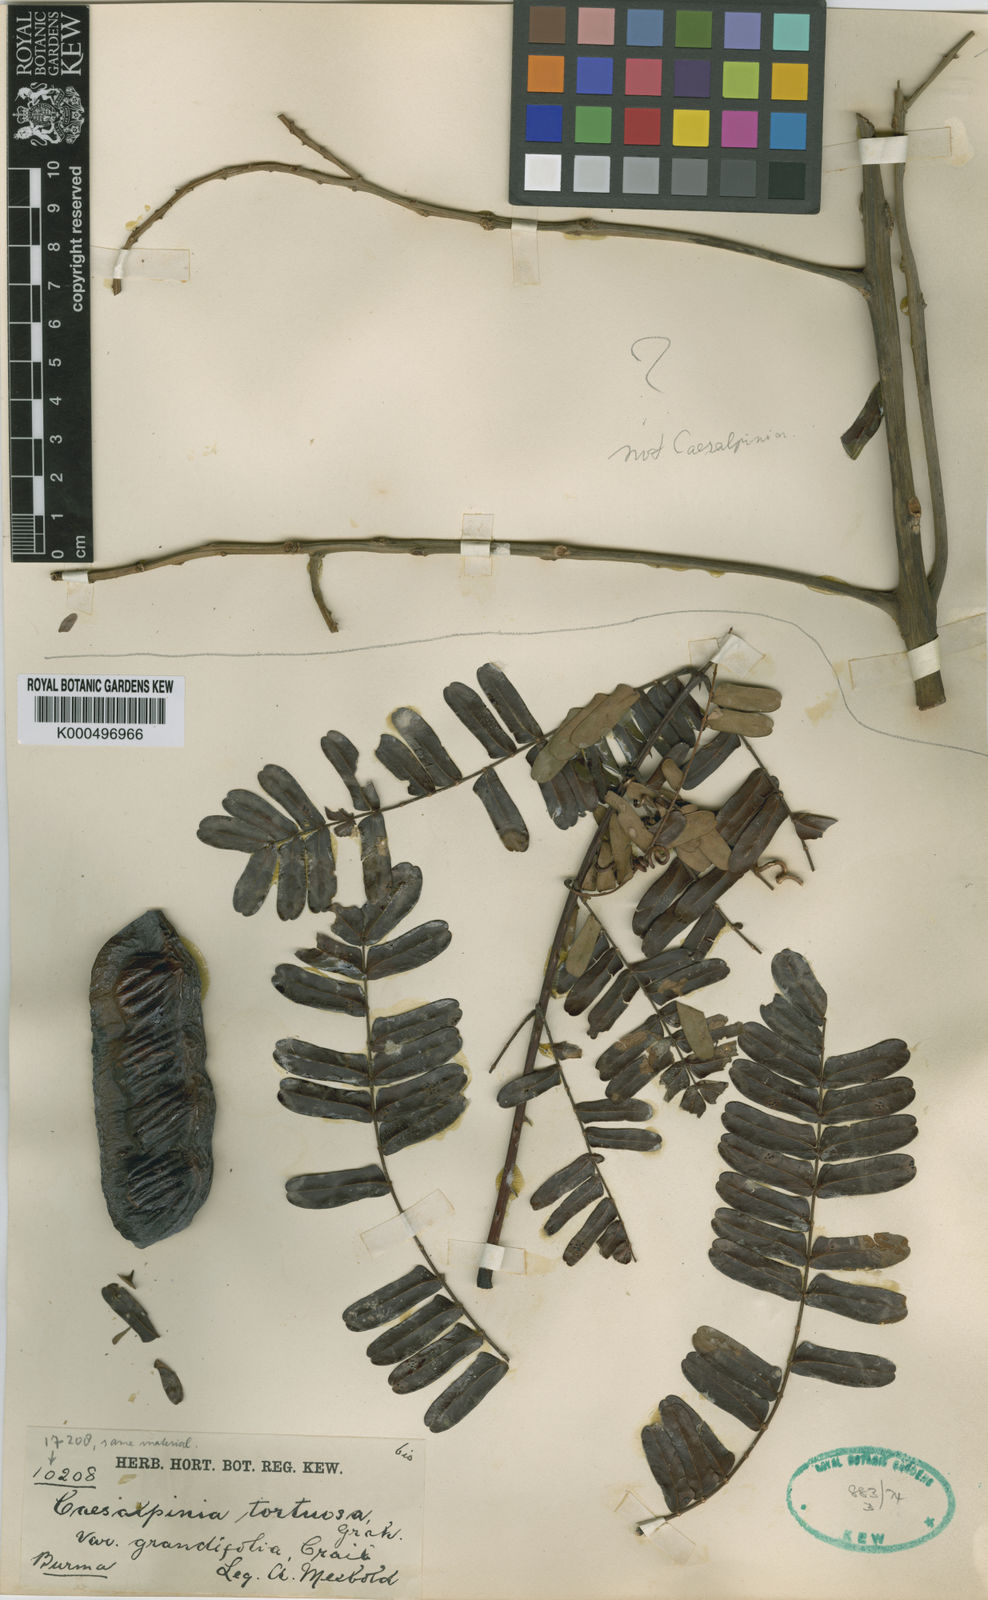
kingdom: Plantae
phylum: Tracheophyta
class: Magnoliopsida
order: Fabales
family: Fabaceae
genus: Moullava
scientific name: Moullava tortuosa
